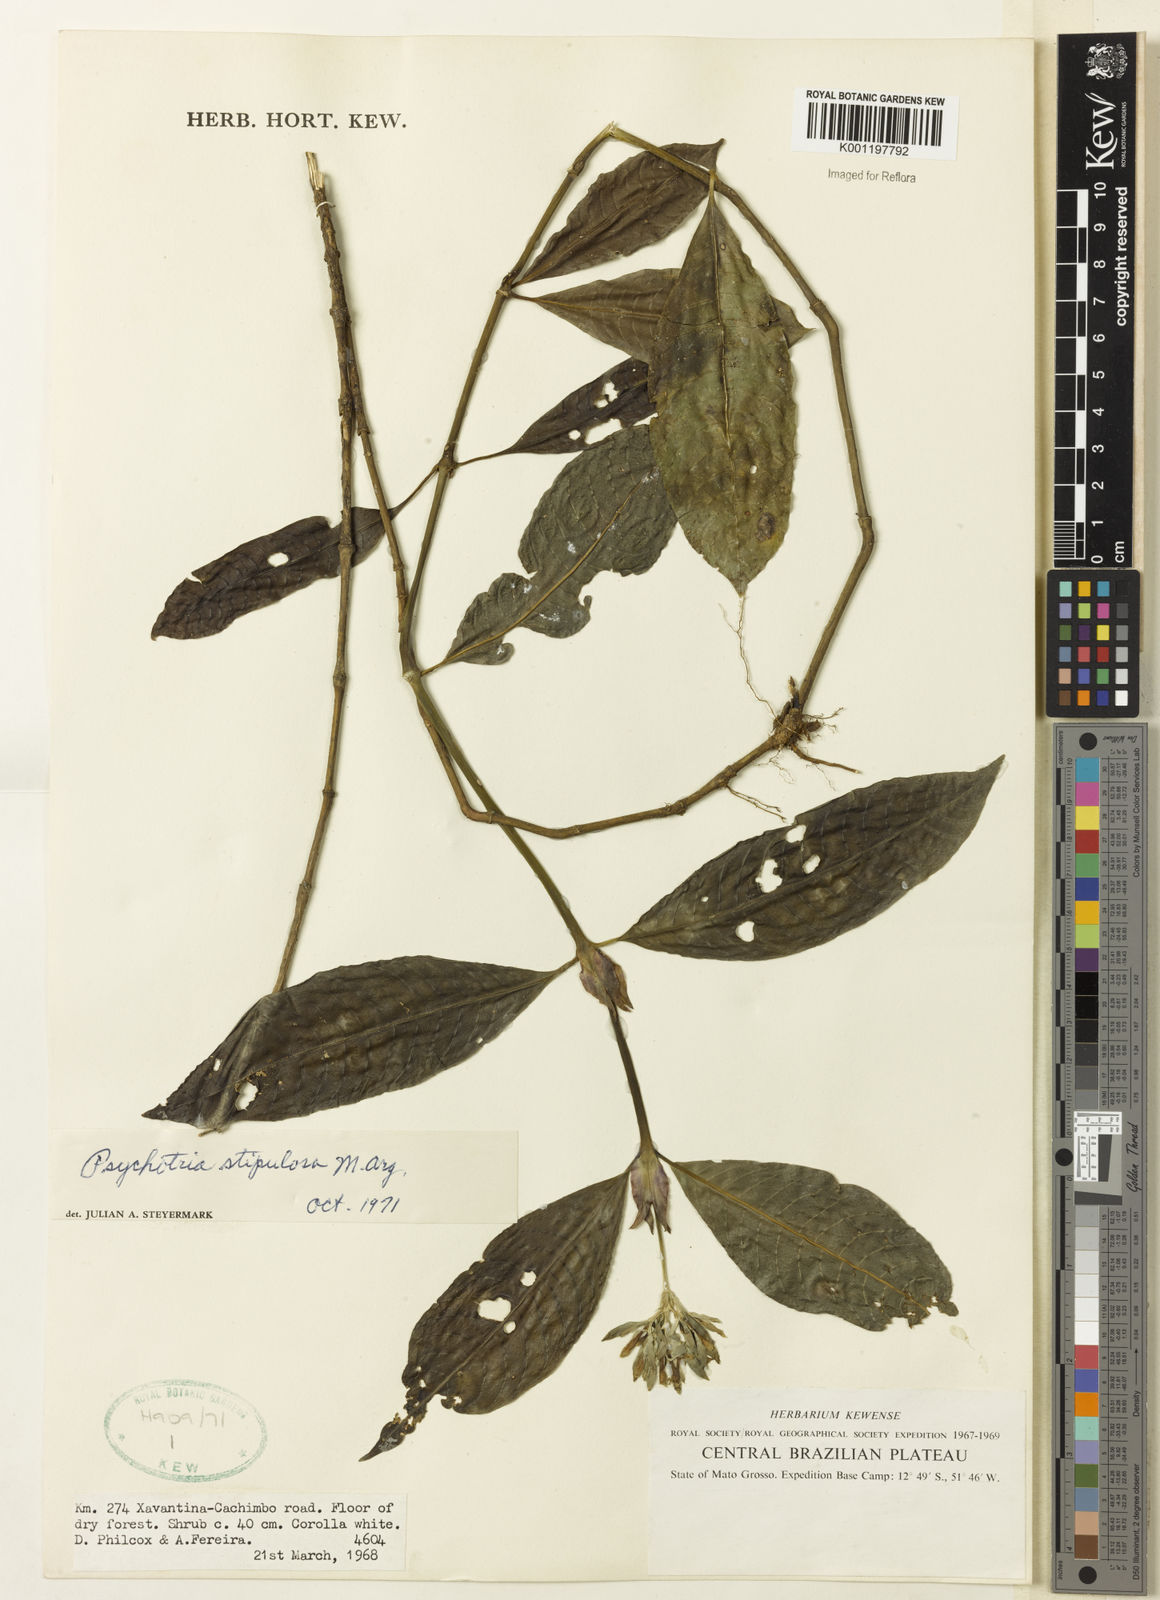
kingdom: Plantae
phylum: Tracheophyta
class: Magnoliopsida
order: Gentianales
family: Rubiaceae
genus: Psychotria
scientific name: Psychotria
